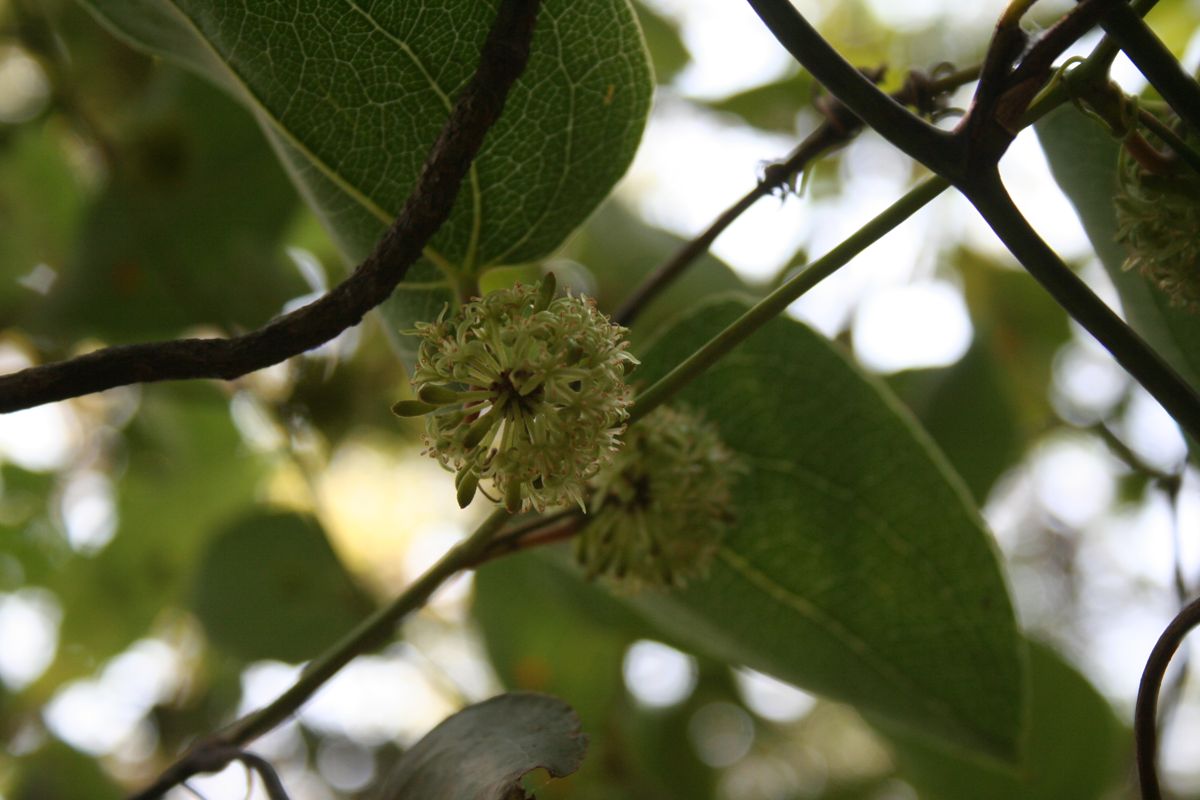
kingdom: Plantae
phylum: Tracheophyta
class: Liliopsida
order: Liliales
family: Smilacaceae
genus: Smilax
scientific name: Smilax subpubescens
